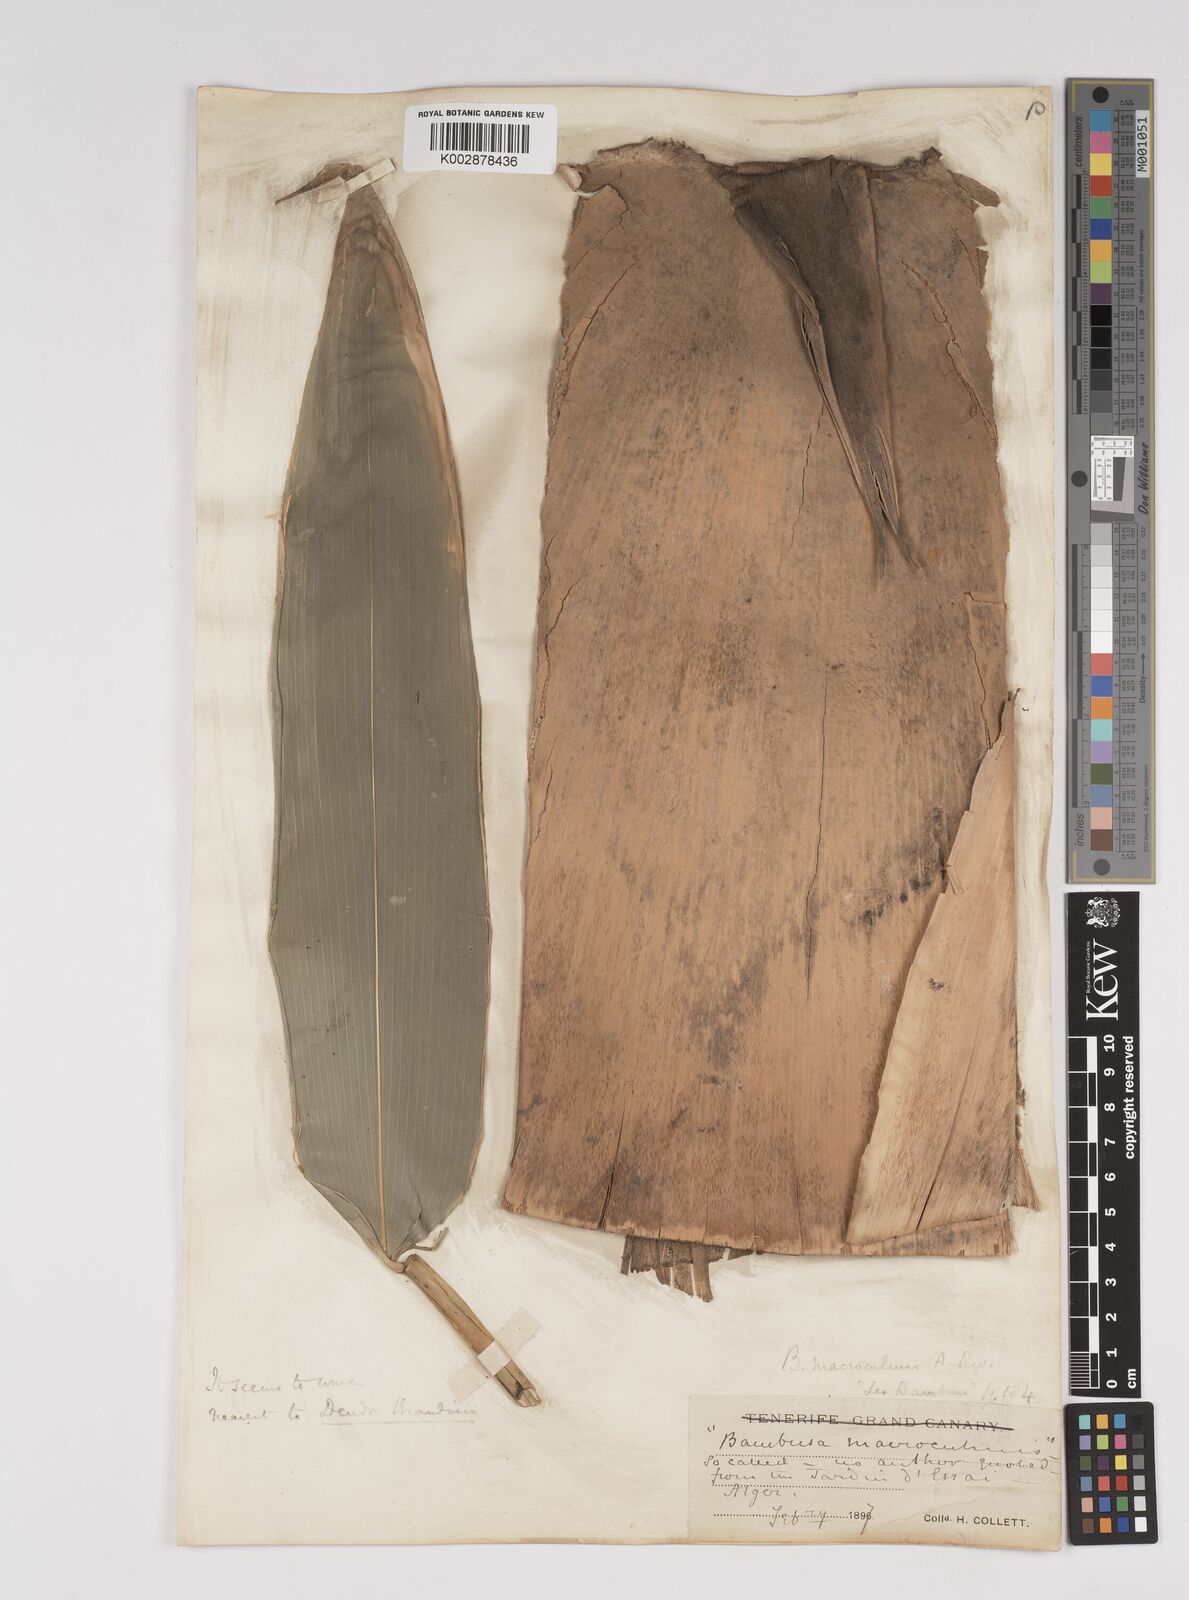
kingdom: Plantae
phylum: Tracheophyta
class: Liliopsida
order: Poales
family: Poaceae
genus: Dendrocalamus
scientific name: Dendrocalamus macroculmis
